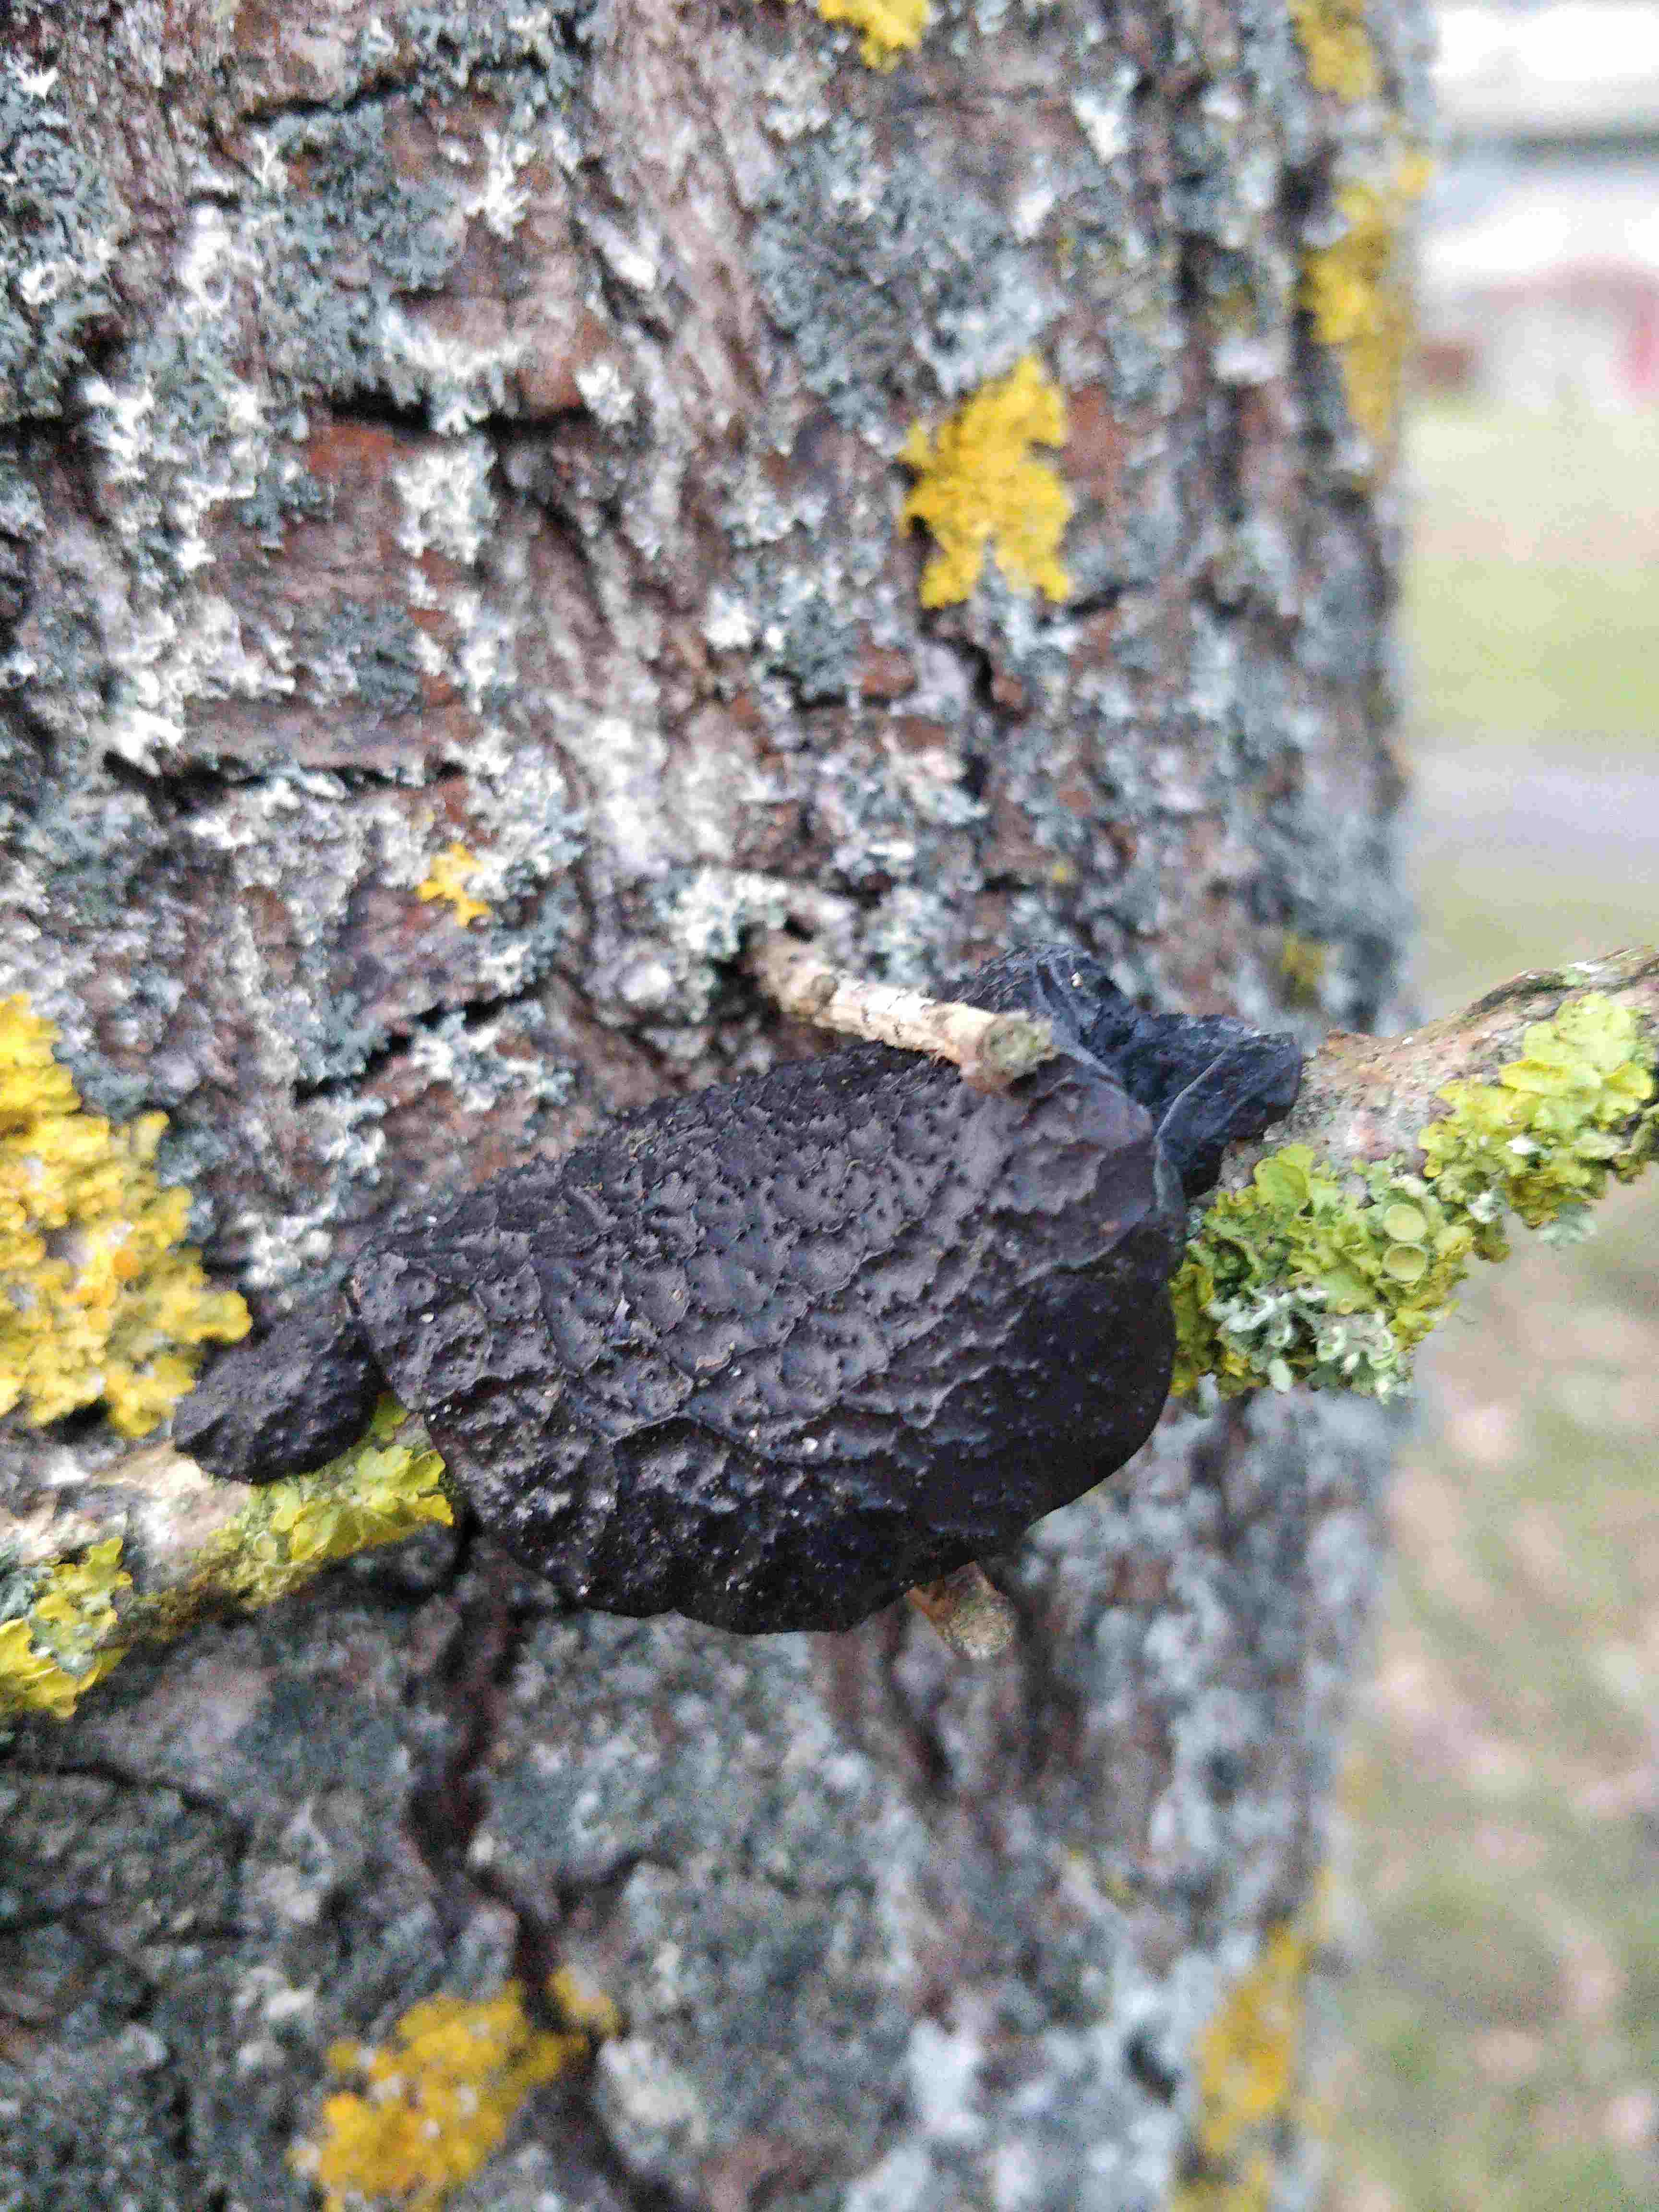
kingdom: Fungi
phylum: Basidiomycota
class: Agaricomycetes
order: Auriculariales
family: Auriculariaceae
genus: Exidia
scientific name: Exidia glandulosa
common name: ege-bævretop
